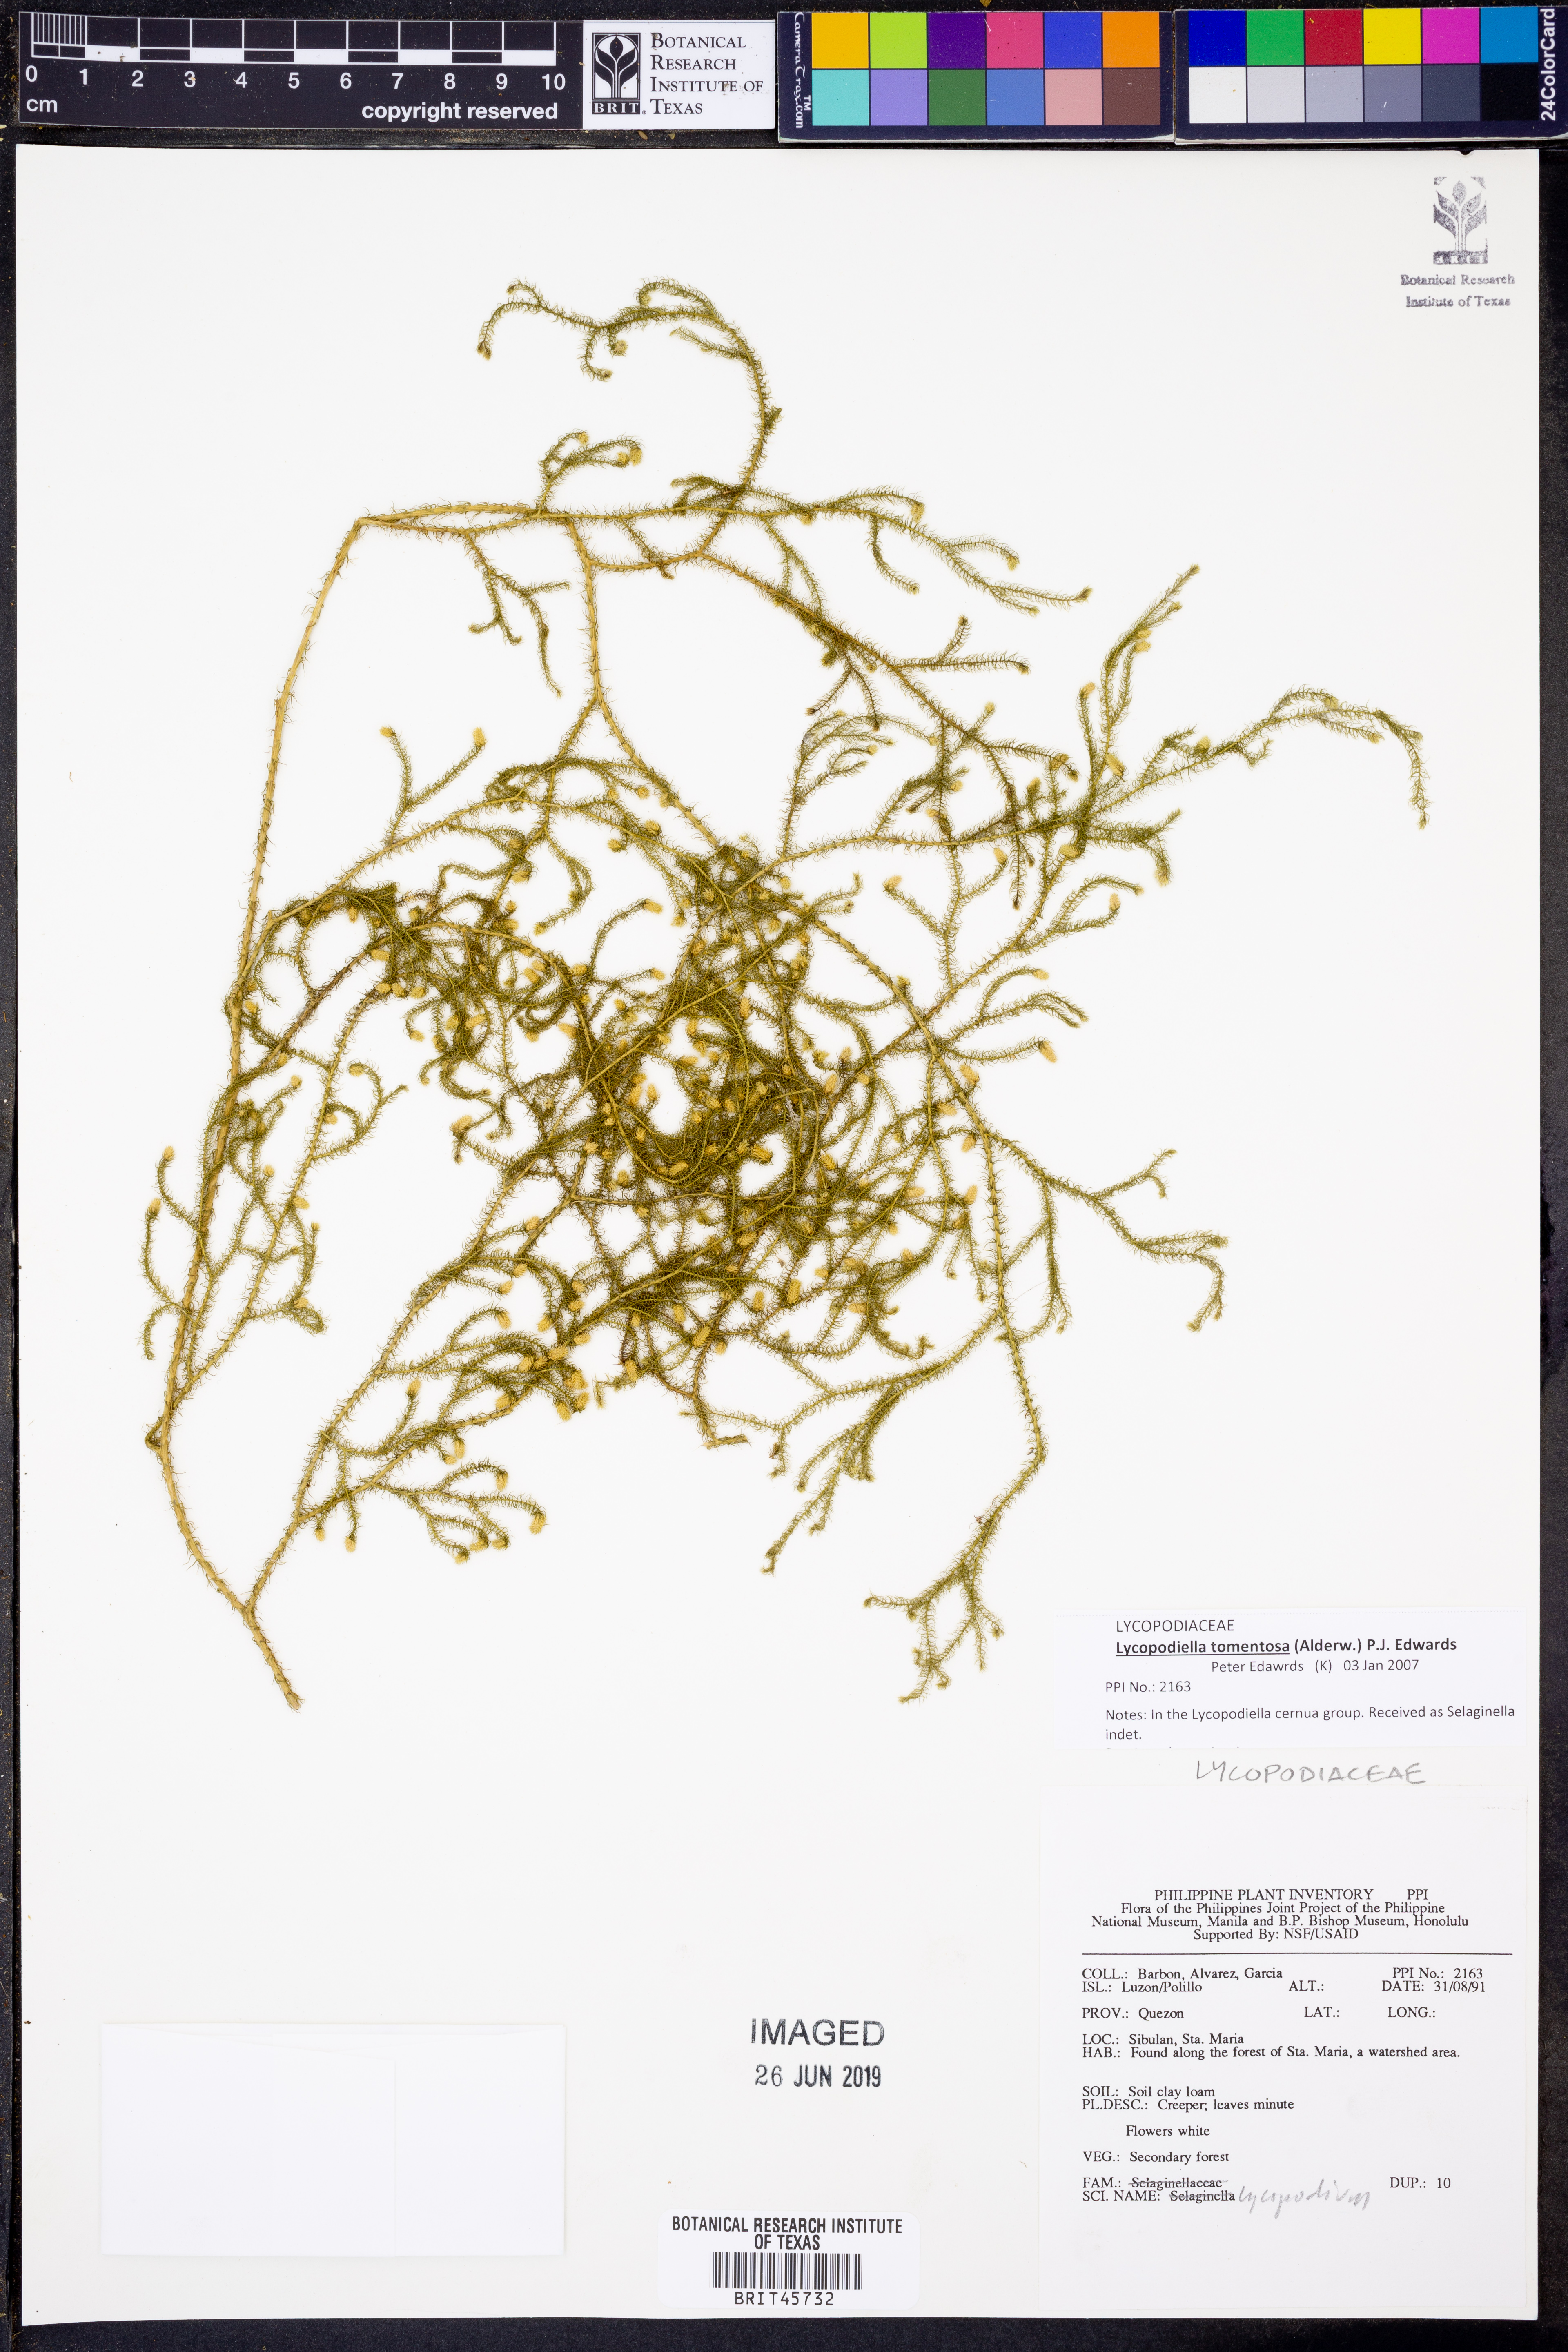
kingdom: Plantae
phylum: Tracheophyta
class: Lycopodiopsida
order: Lycopodiales
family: Lycopodiaceae
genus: Palhinhaea
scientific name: Palhinhaea tomentosa
